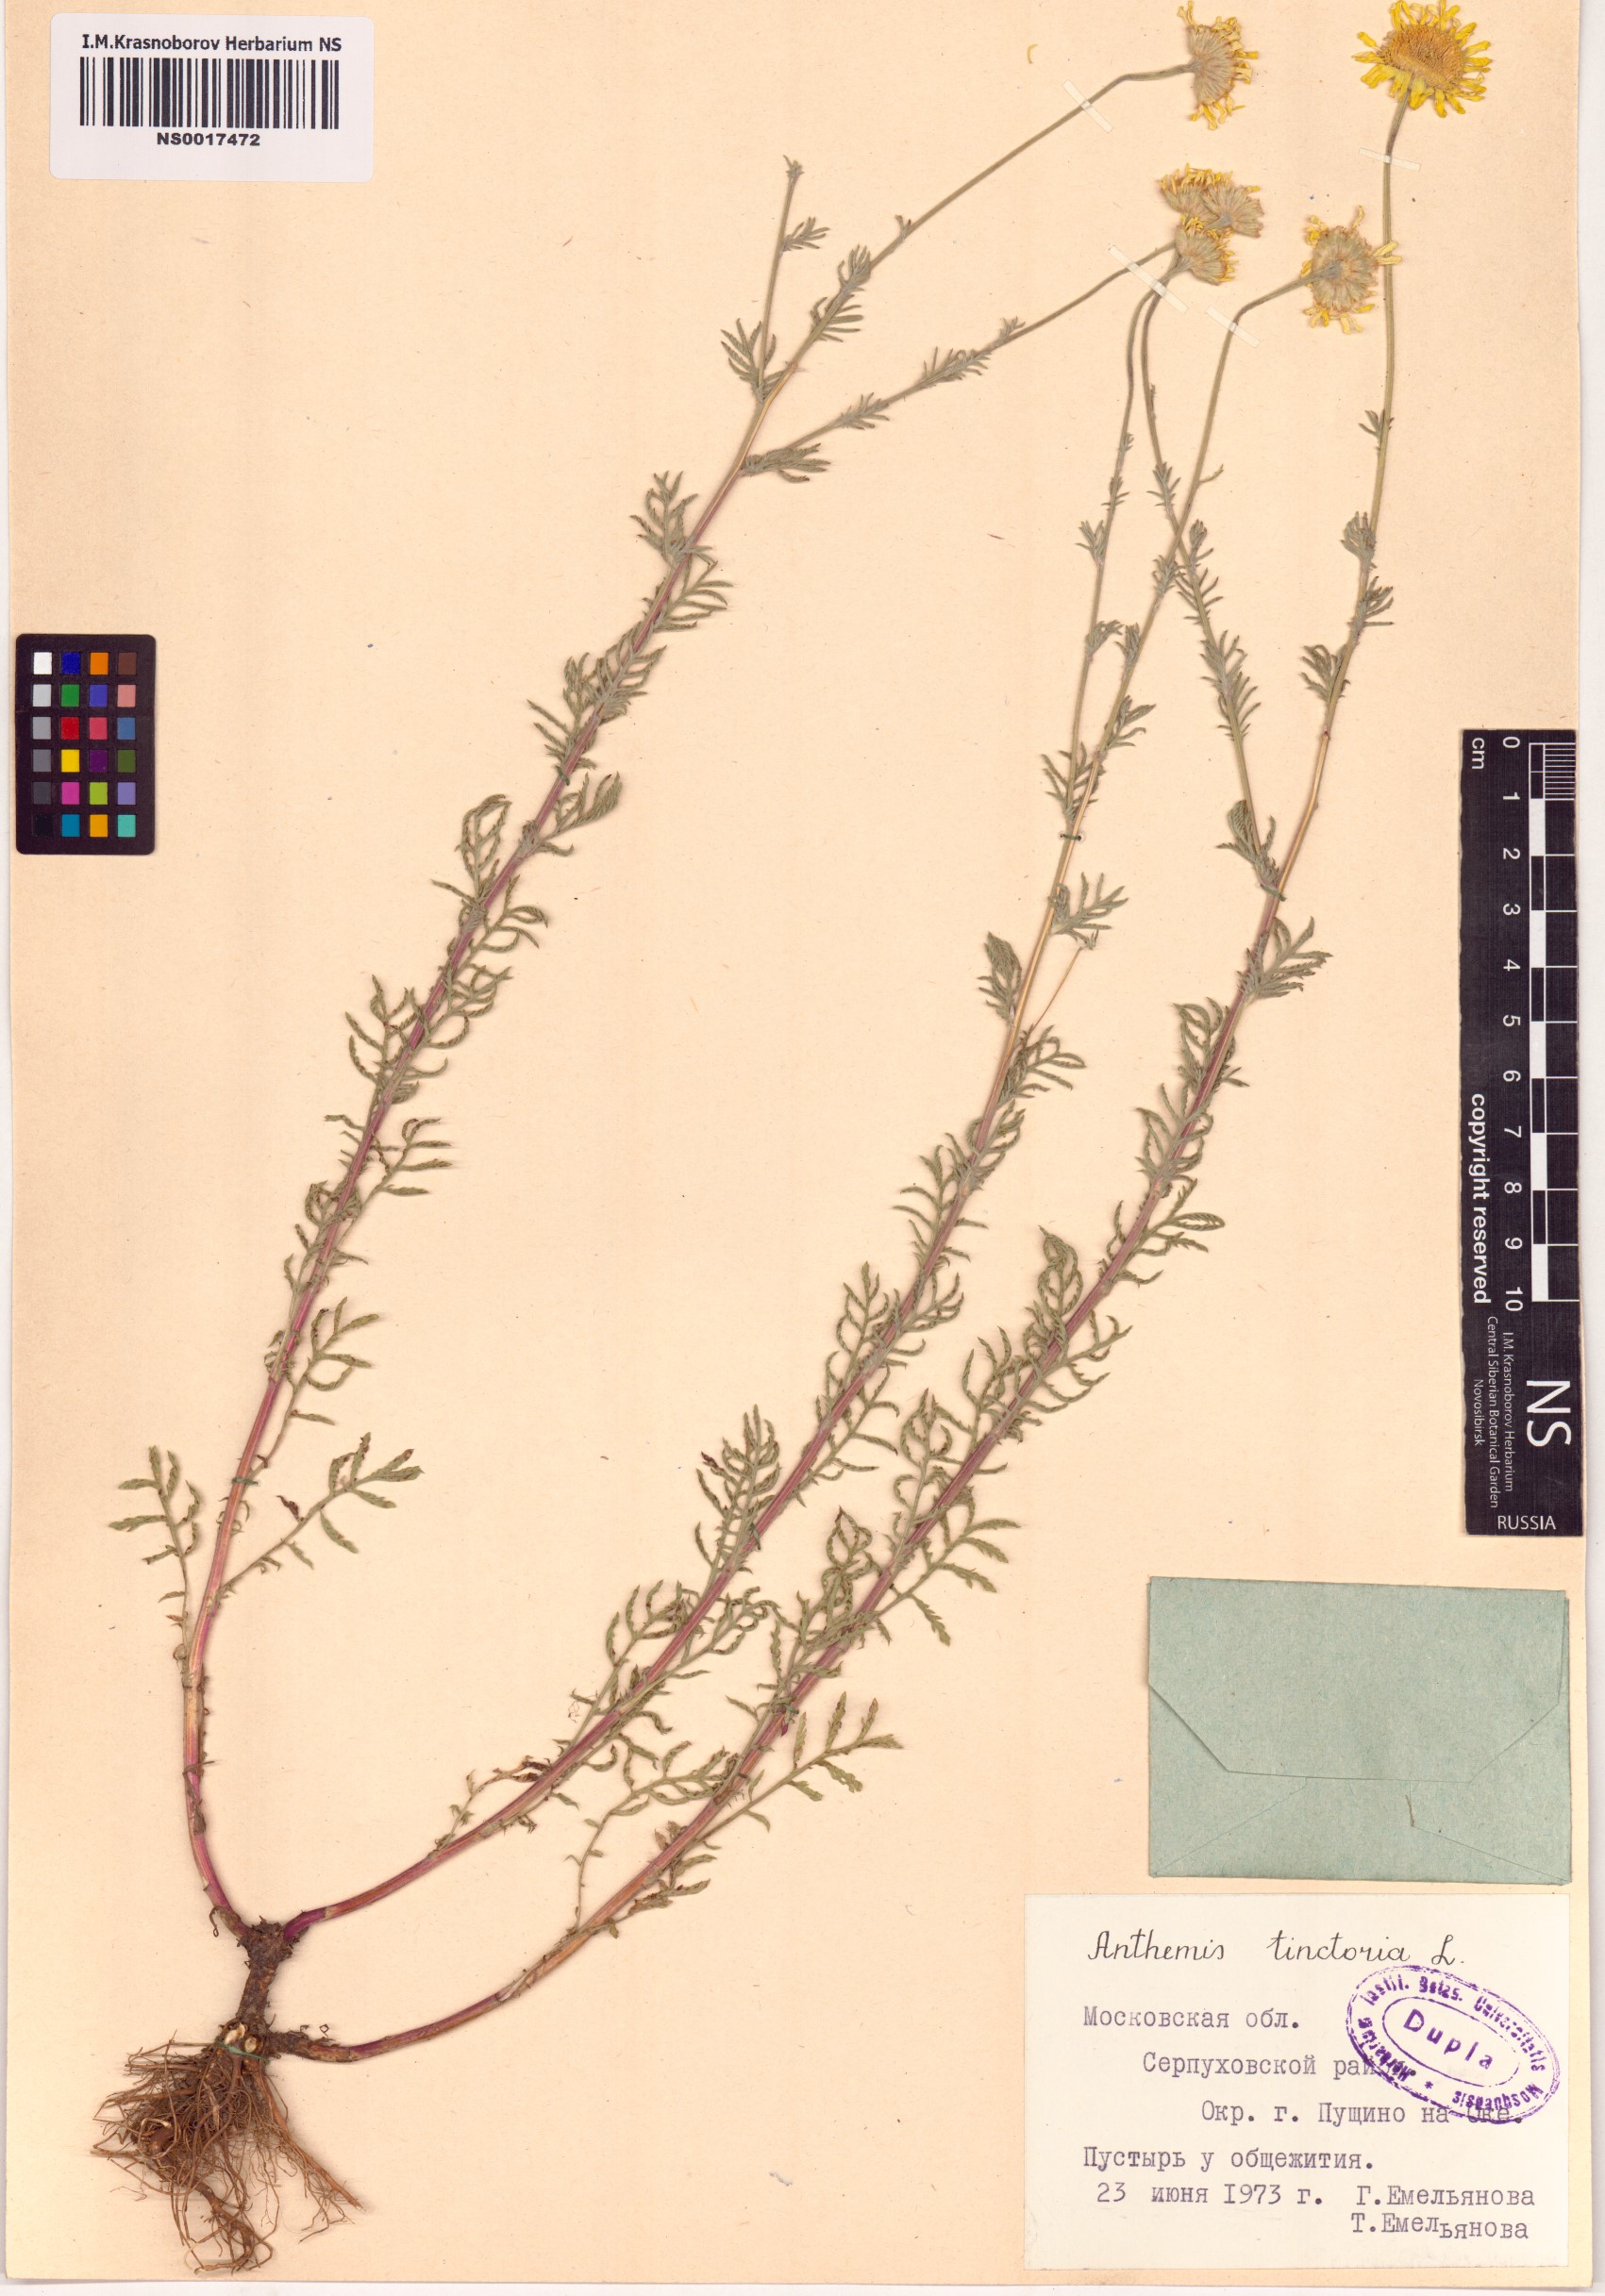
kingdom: Plantae
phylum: Tracheophyta
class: Magnoliopsida
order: Asterales
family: Asteraceae
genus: Cota
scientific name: Cota tinctoria
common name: Golden chamomile
